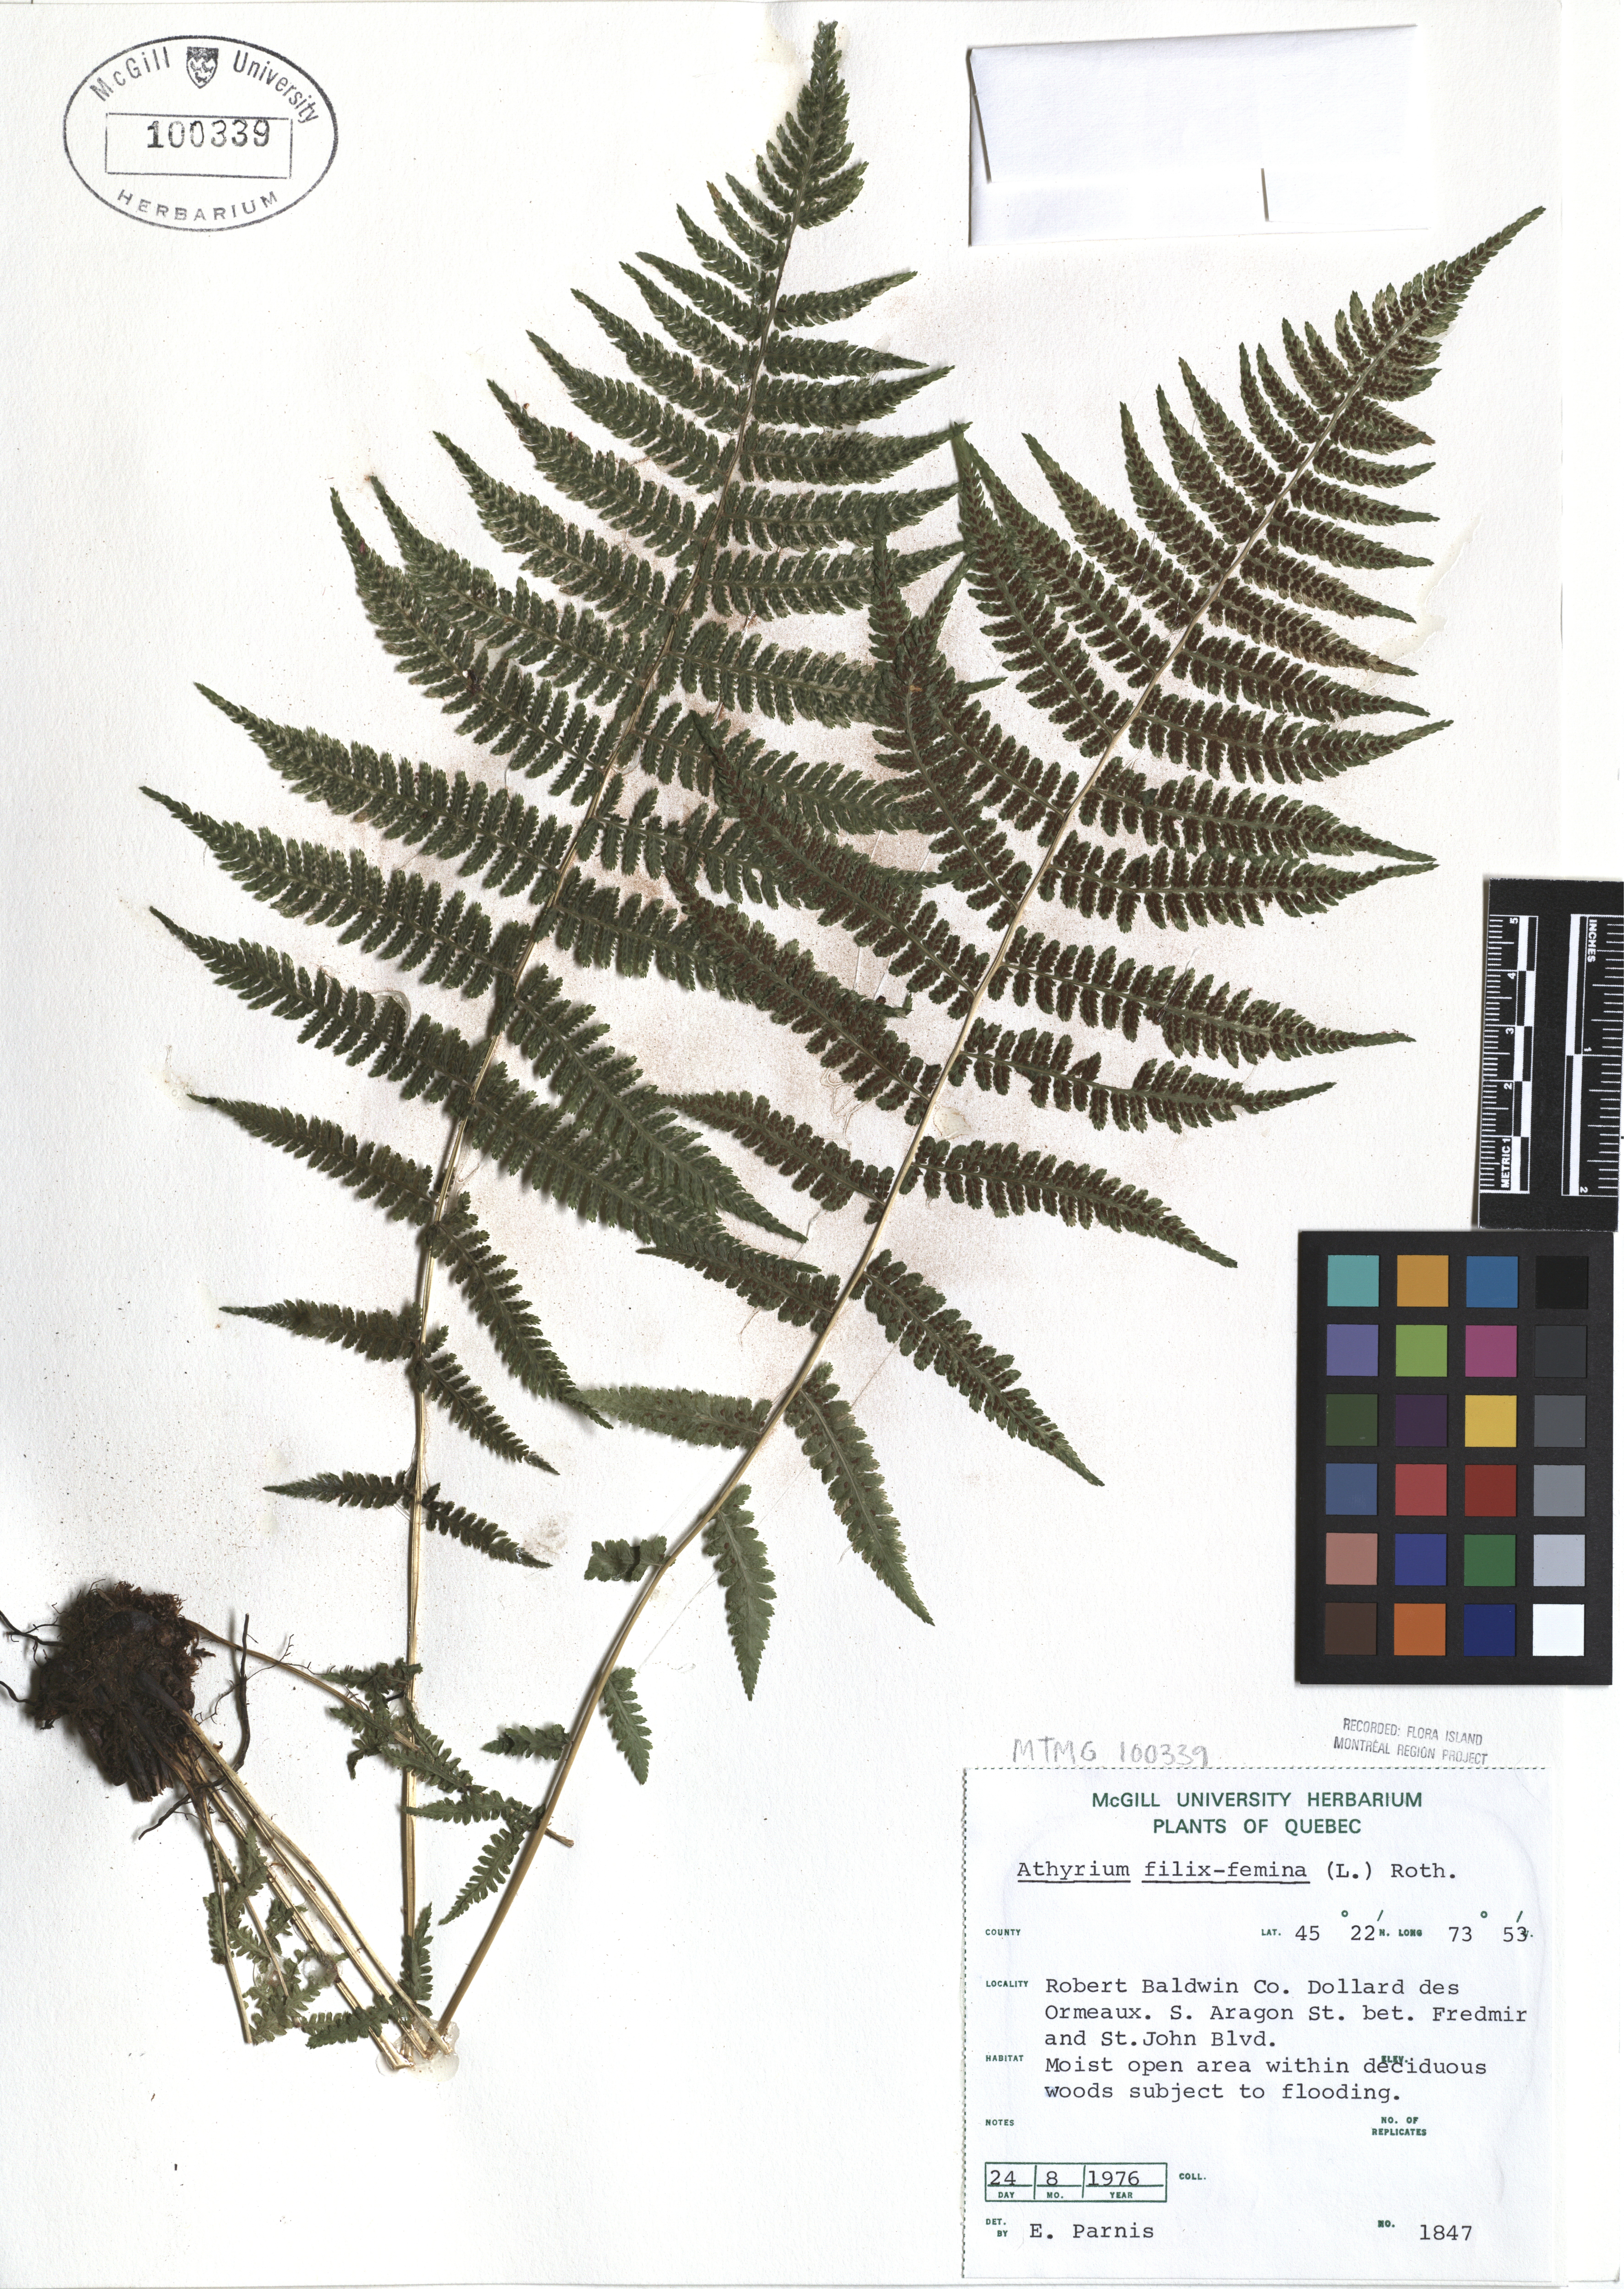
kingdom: Plantae
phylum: Tracheophyta
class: Polypodiopsida
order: Polypodiales
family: Athyriaceae
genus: Athyrium
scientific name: Athyrium filix-femina
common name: Lady fern
